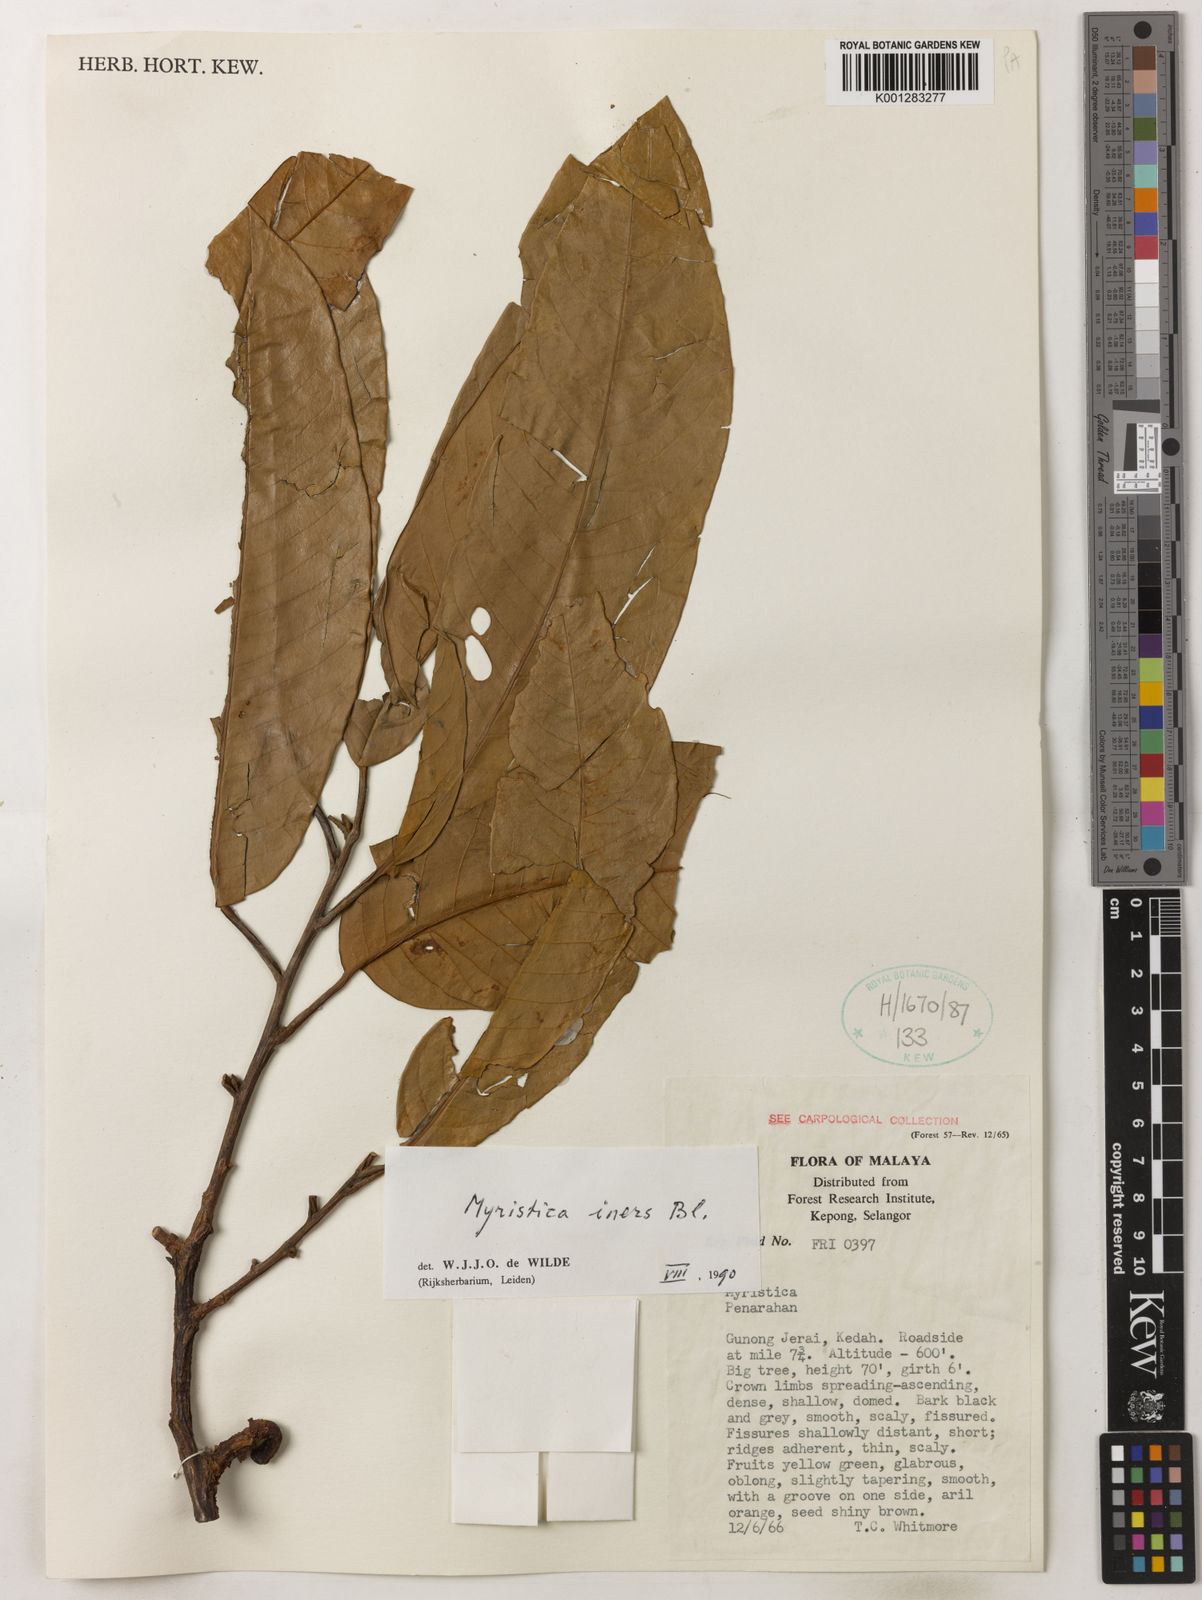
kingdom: Plantae
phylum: Tracheophyta
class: Magnoliopsida
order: Magnoliales
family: Myristicaceae
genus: Myristica
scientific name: Myristica iners
